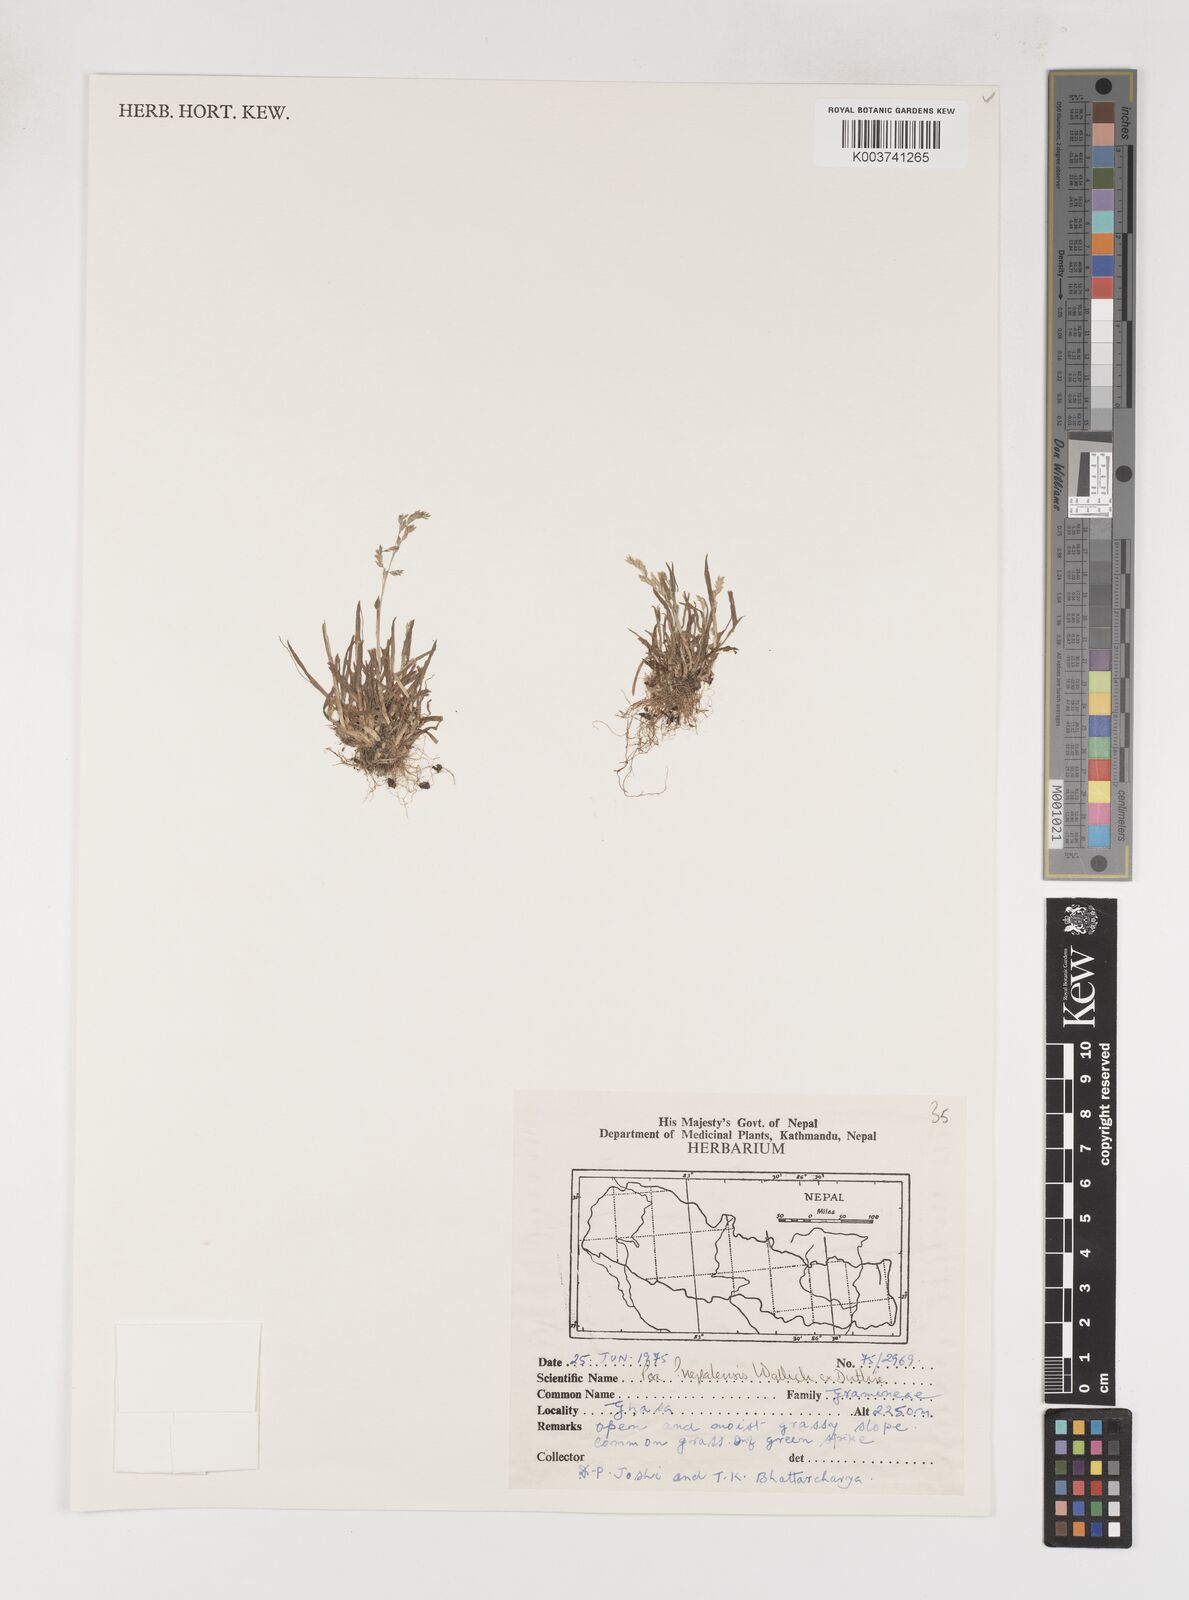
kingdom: Plantae
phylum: Tracheophyta
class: Liliopsida
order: Poales
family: Poaceae
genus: Poa
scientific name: Poa
